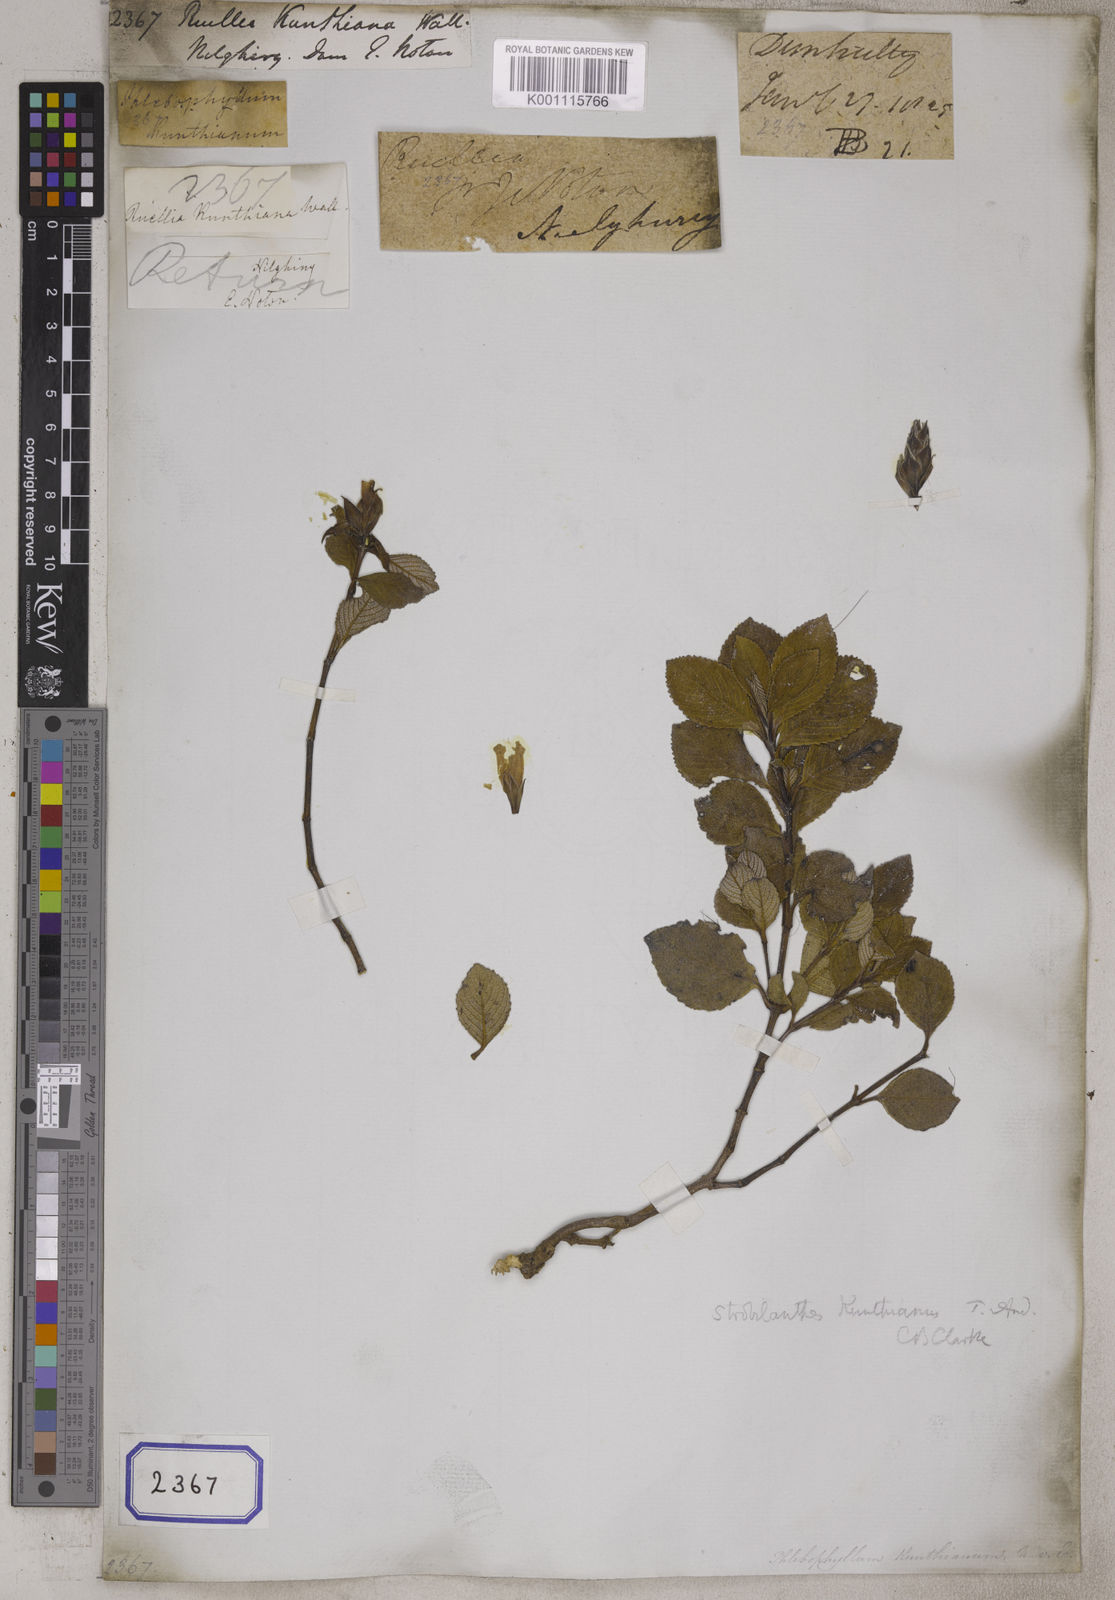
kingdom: Plantae
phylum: Tracheophyta
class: Magnoliopsida
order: Lamiales
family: Acanthaceae
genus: Ruellia
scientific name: Ruellia
